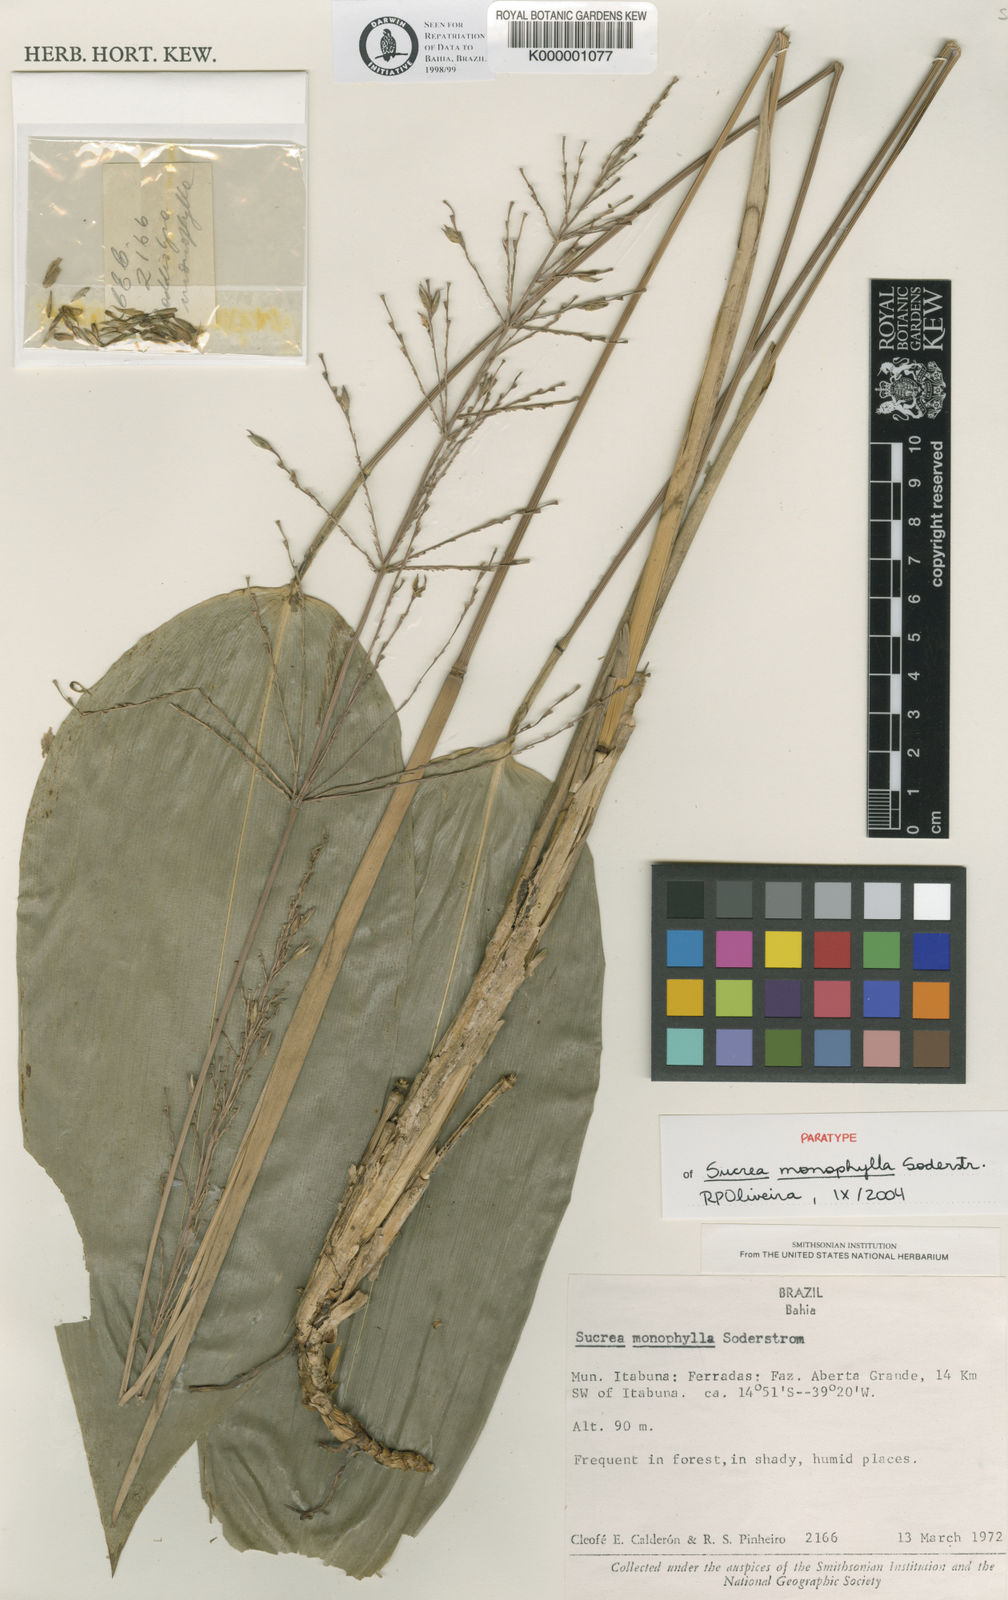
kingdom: Plantae
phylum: Tracheophyta
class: Liliopsida
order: Poales
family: Poaceae
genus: Raddia
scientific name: Raddia monophylla
